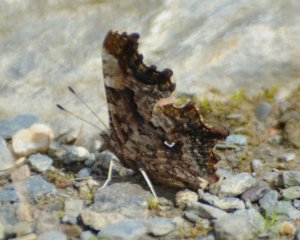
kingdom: Animalia
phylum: Arthropoda
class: Insecta
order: Lepidoptera
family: Nymphalidae
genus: Polygonia
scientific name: Polygonia faunus
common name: Green Comma
